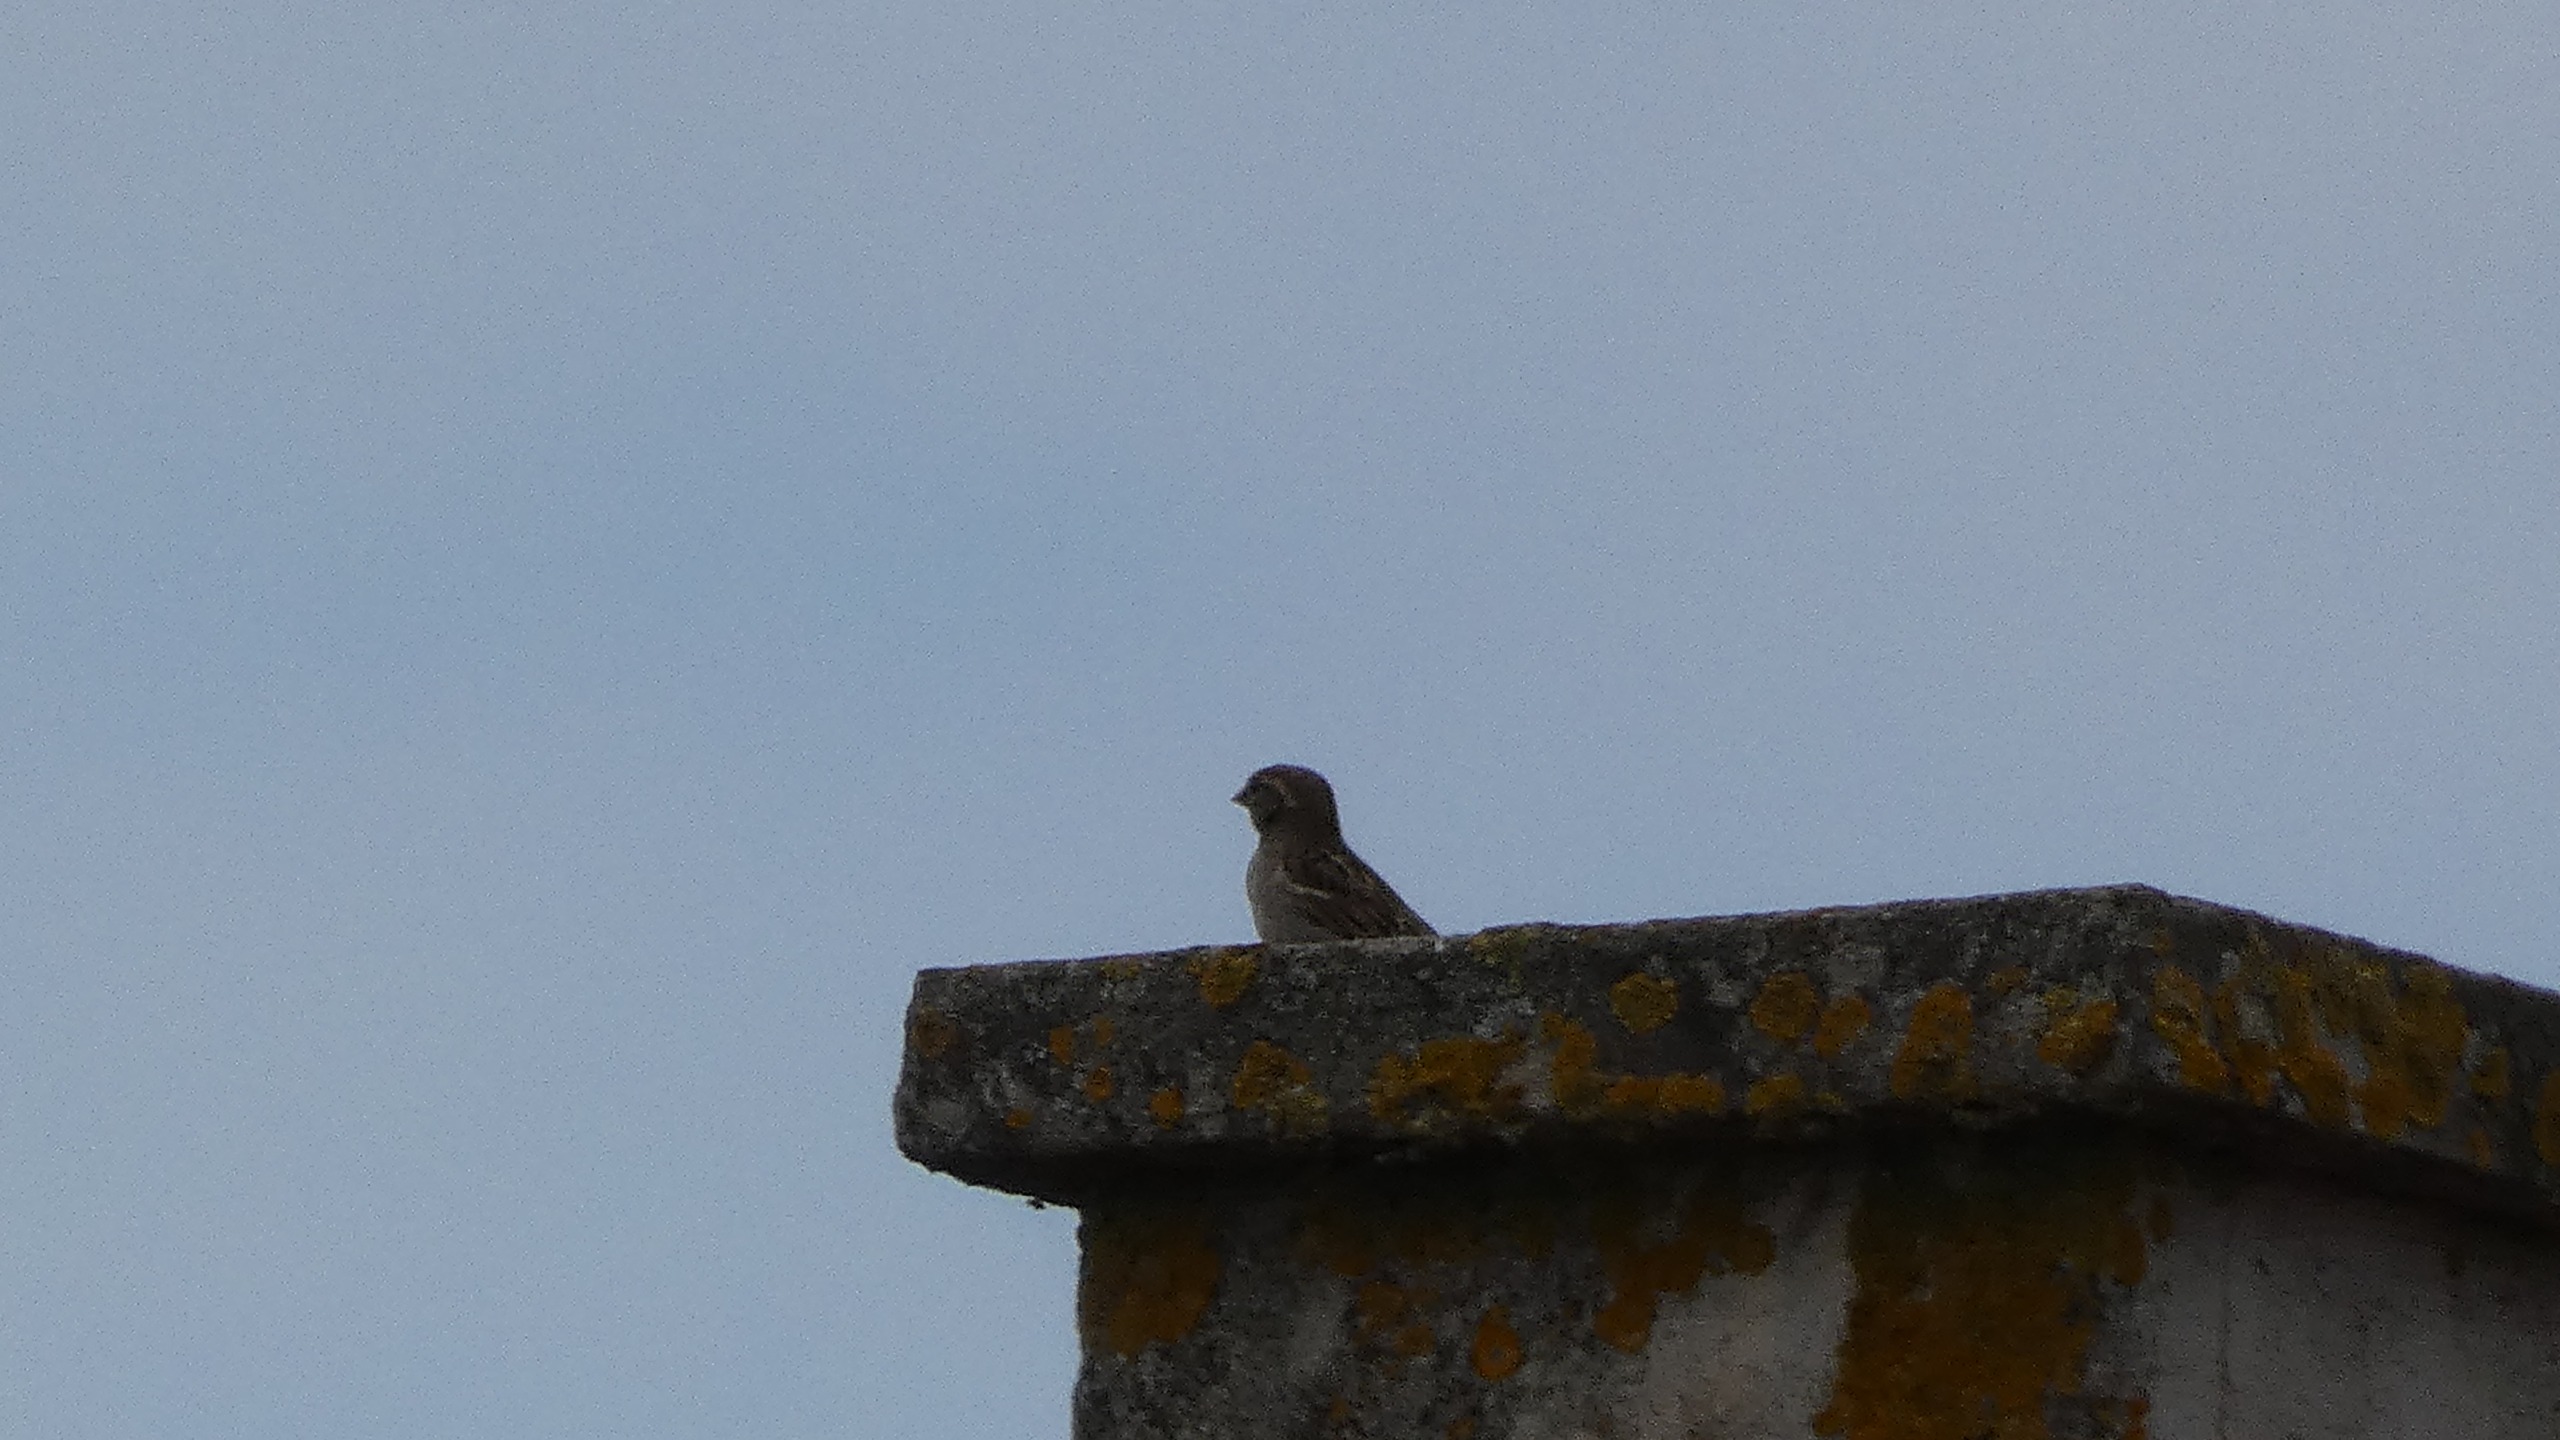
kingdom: Animalia
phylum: Chordata
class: Aves
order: Passeriformes
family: Passeridae
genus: Passer
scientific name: Passer domesticus
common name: Gråspurv
